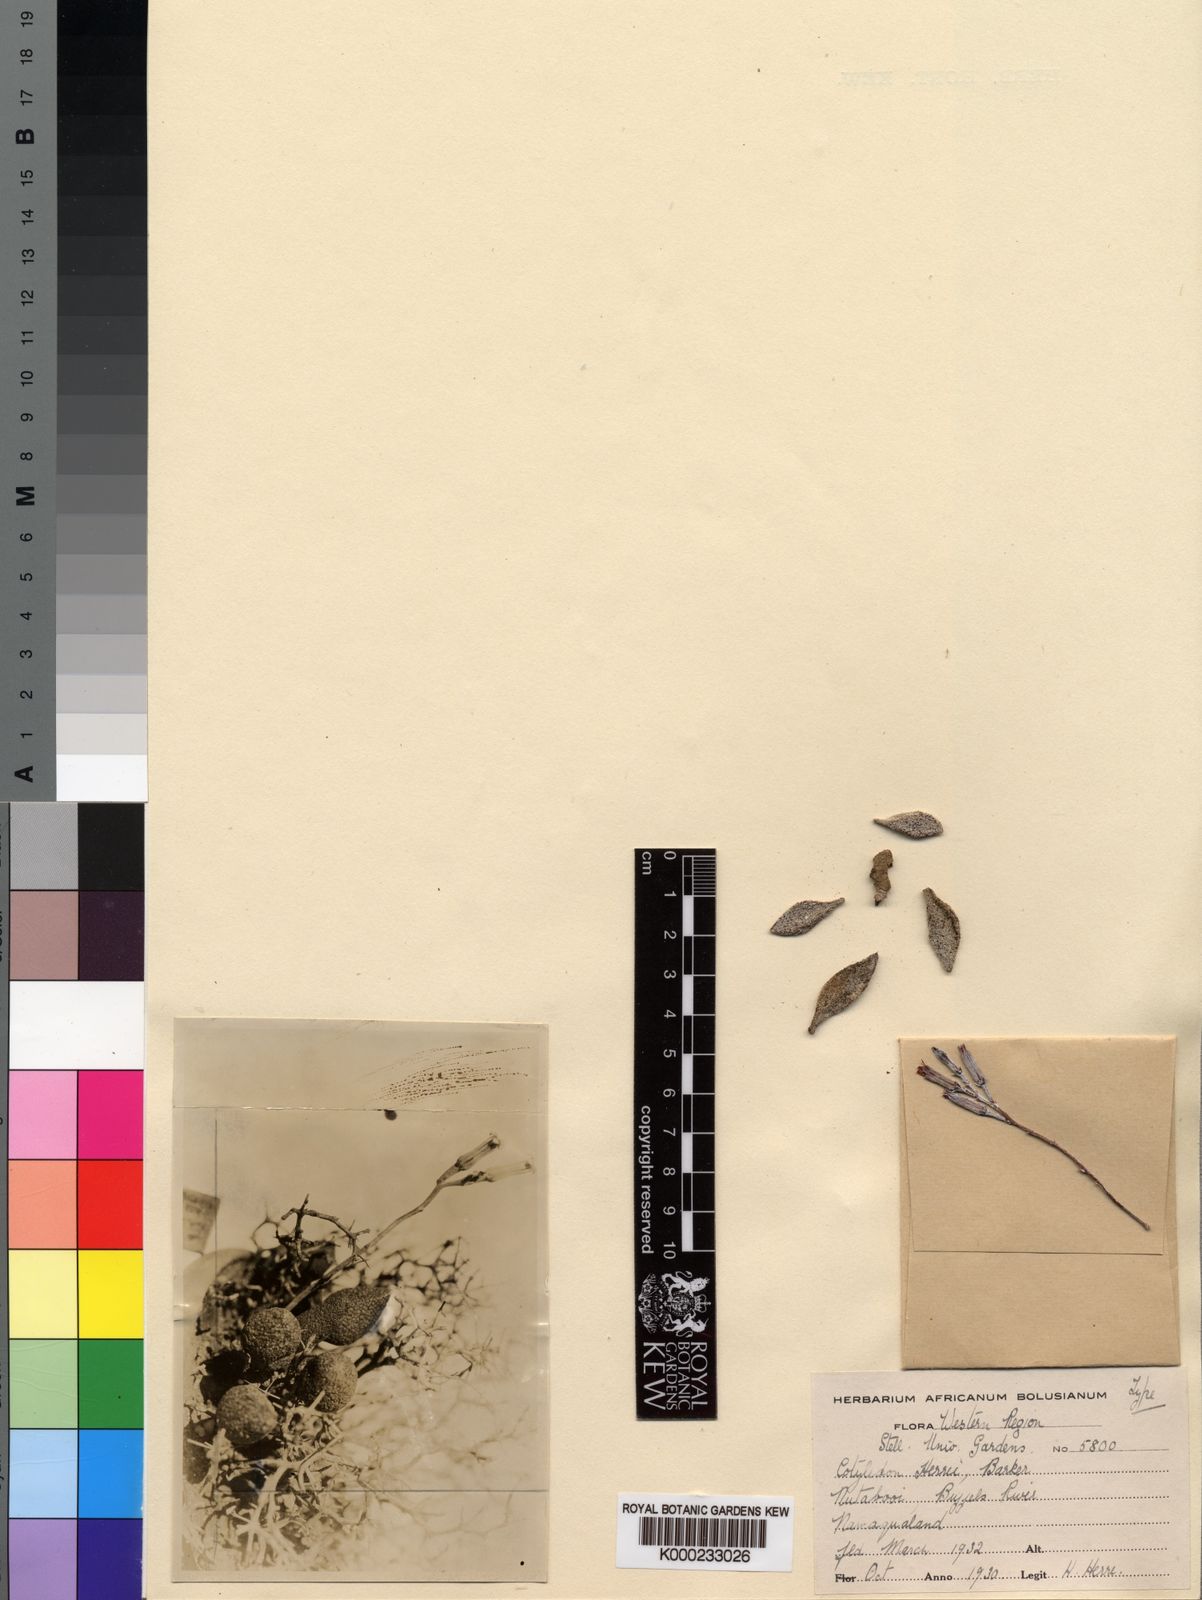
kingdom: Plantae
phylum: Tracheophyta
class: Magnoliopsida
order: Saxifragales
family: Crassulaceae
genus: Adromischus
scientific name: Adromischus marianiae
